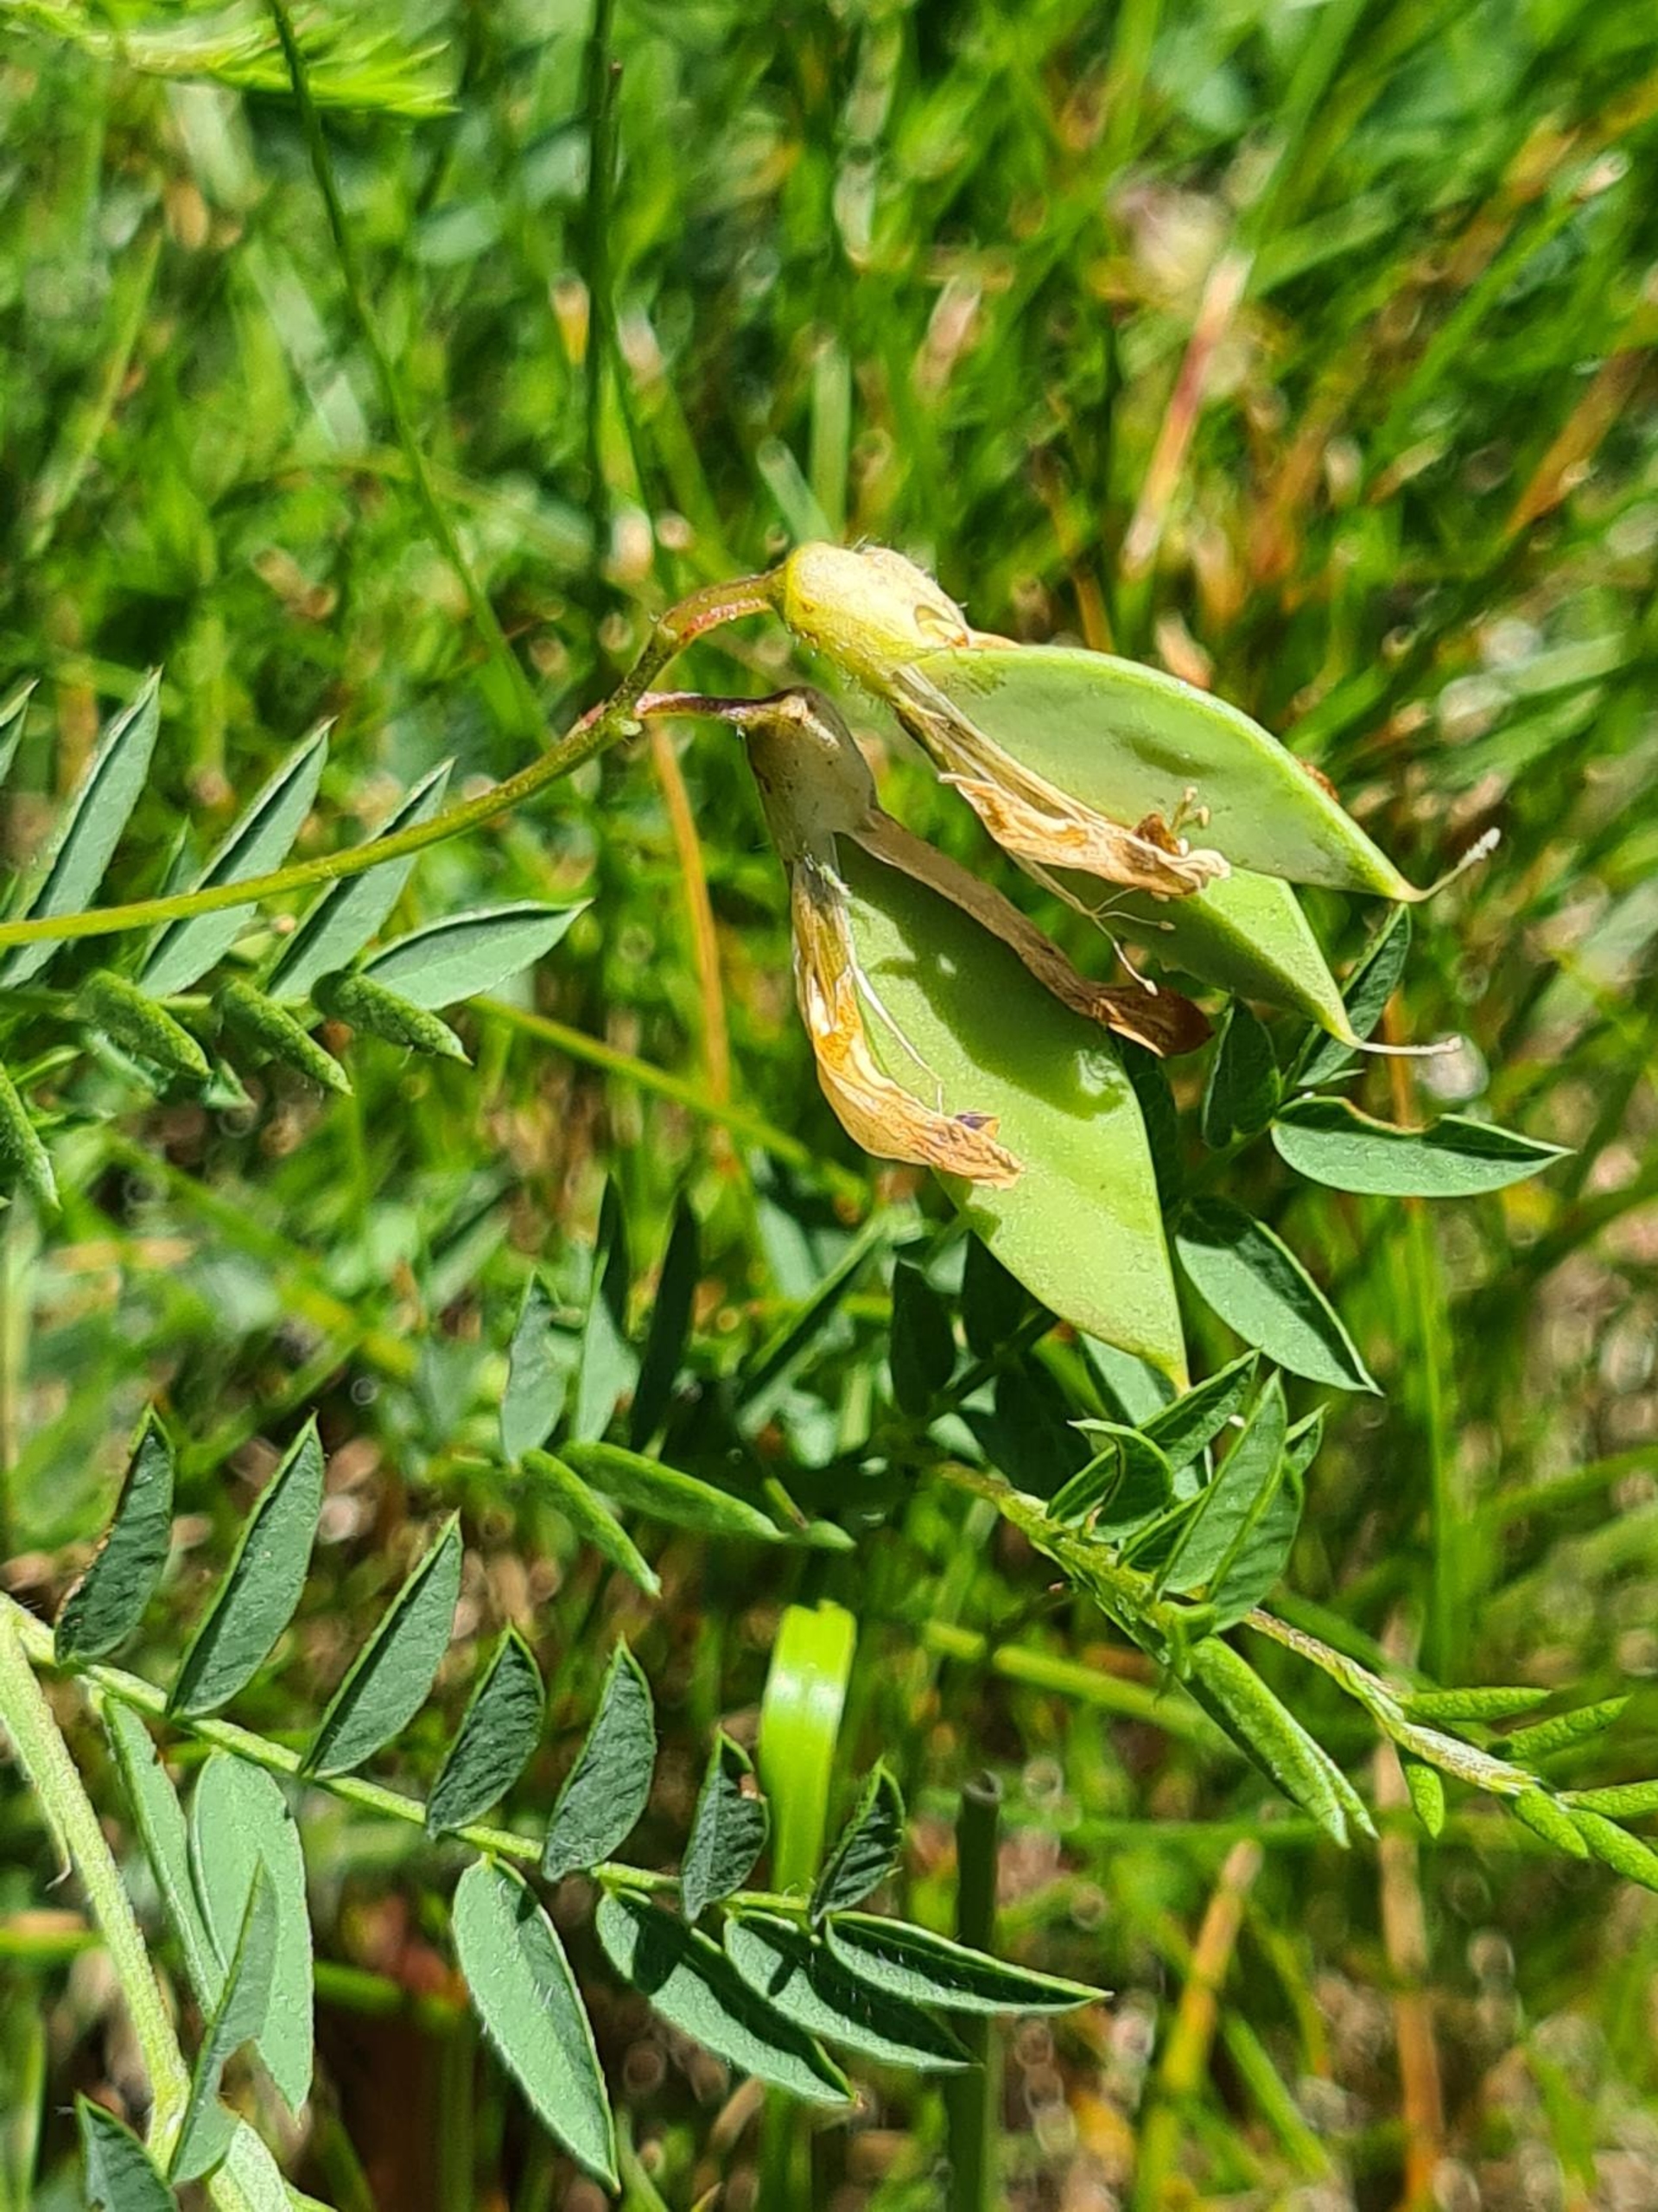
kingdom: Plantae
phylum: Tracheophyta
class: Magnoliopsida
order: Fabales
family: Fabaceae
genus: Vicia
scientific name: Vicia orobus
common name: Lyng-vikke
